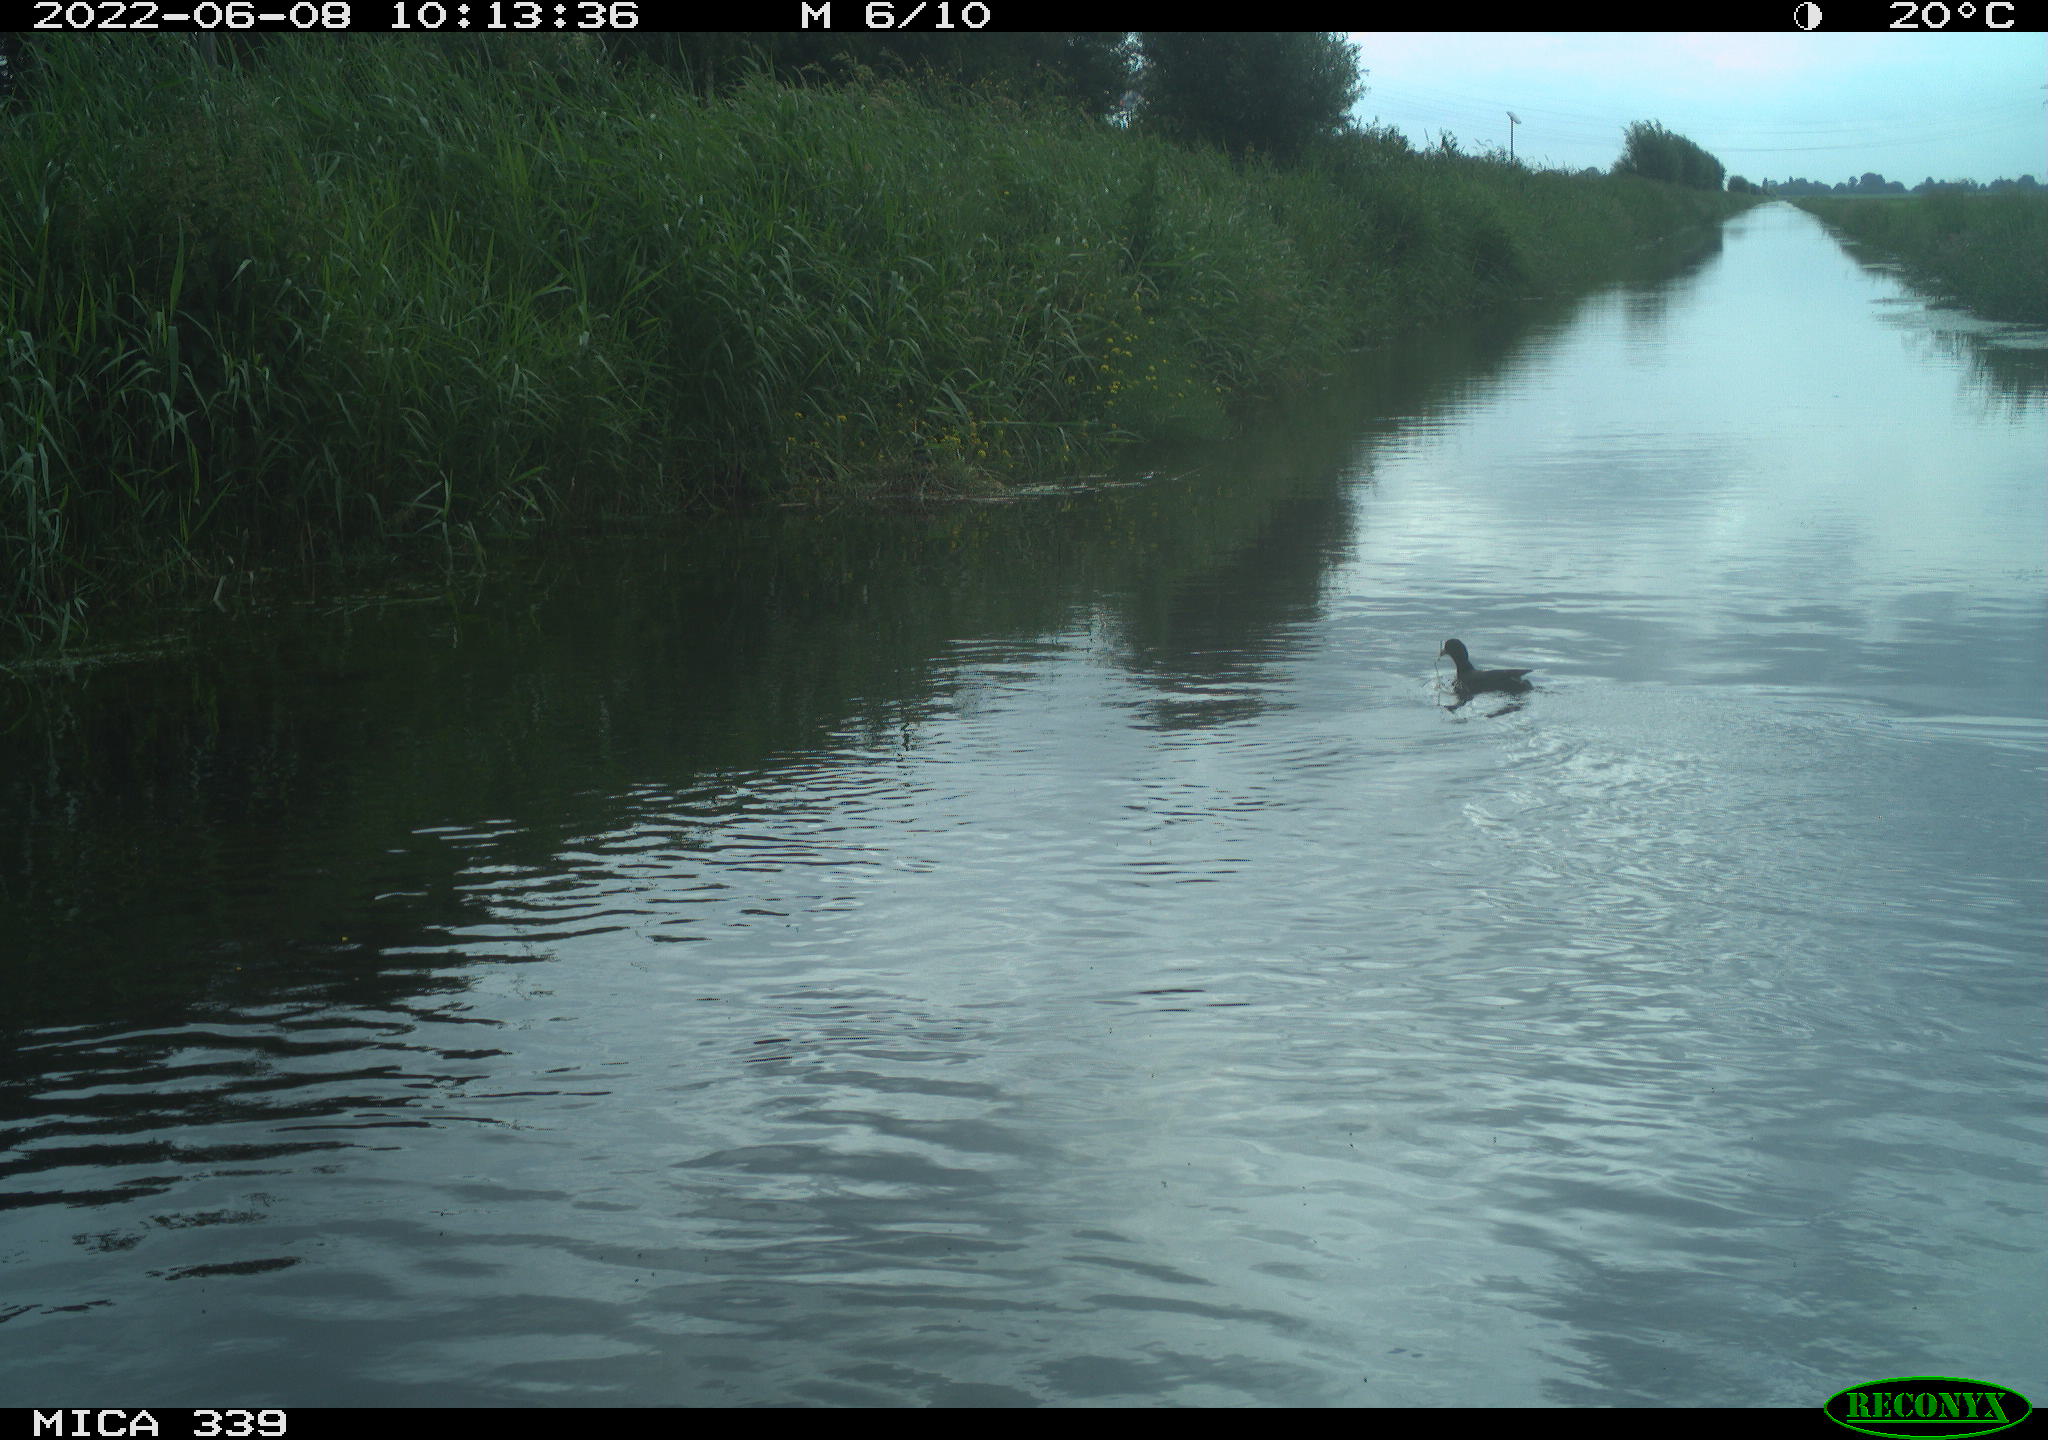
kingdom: Animalia
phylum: Chordata
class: Aves
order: Gruiformes
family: Rallidae
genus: Fulica
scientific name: Fulica atra
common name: Eurasian coot
